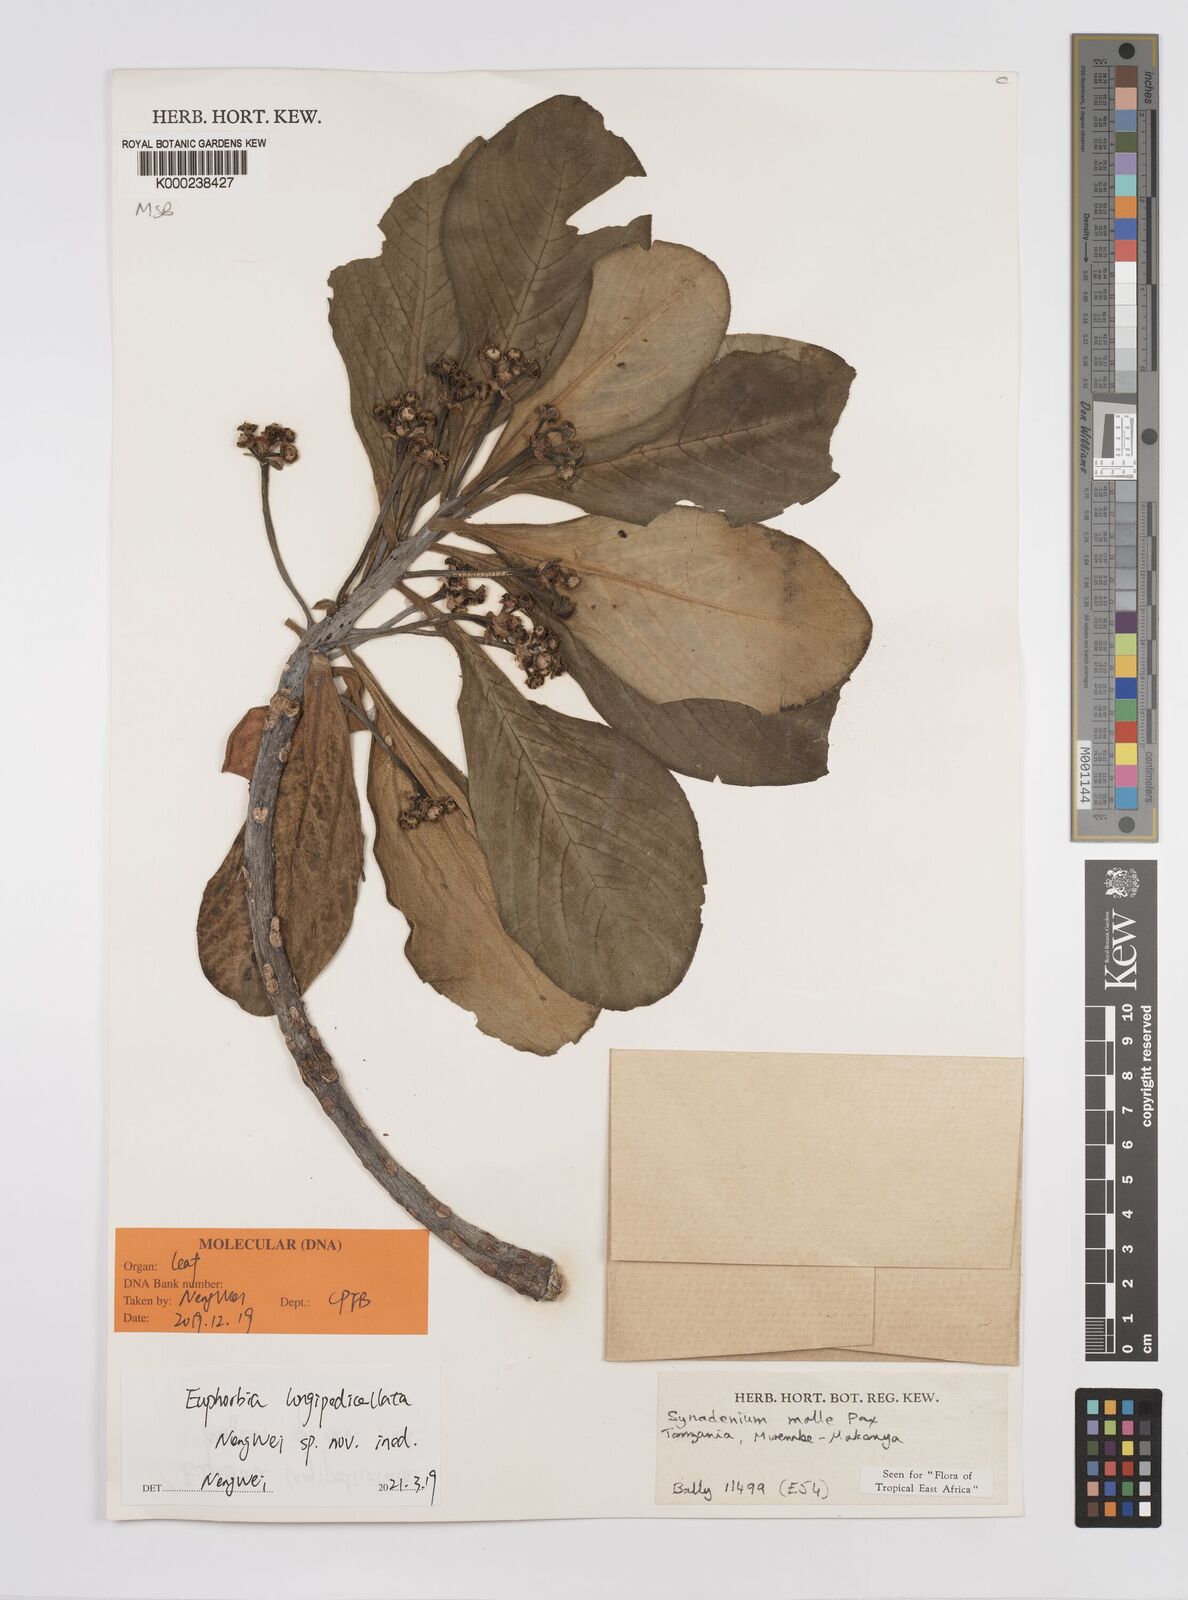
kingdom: Plantae
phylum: Tracheophyta
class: Magnoliopsida
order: Malpighiales
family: Euphorbiaceae
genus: Euphorbia
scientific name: Euphorbia pseudomollis
